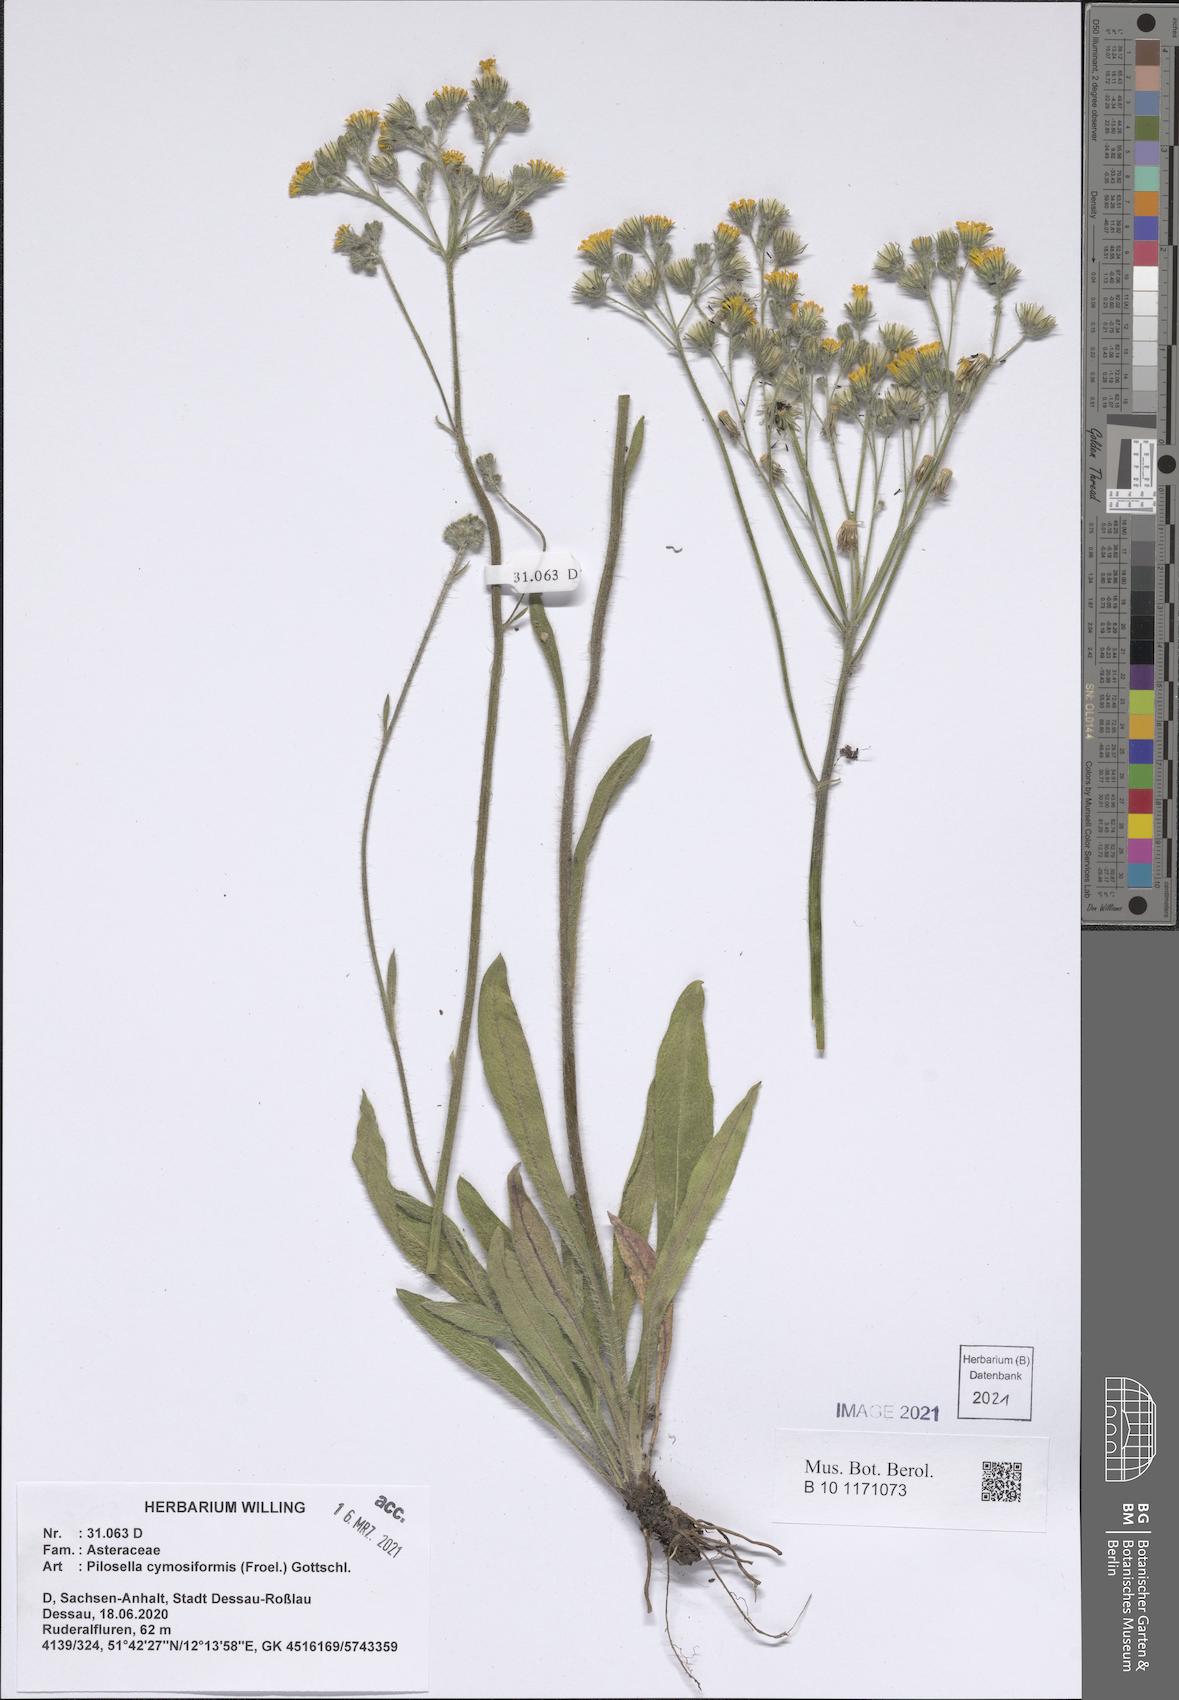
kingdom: Plantae
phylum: Tracheophyta
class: Magnoliopsida
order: Asterales
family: Asteraceae
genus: Pilosella
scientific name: Pilosella cymosiformis
